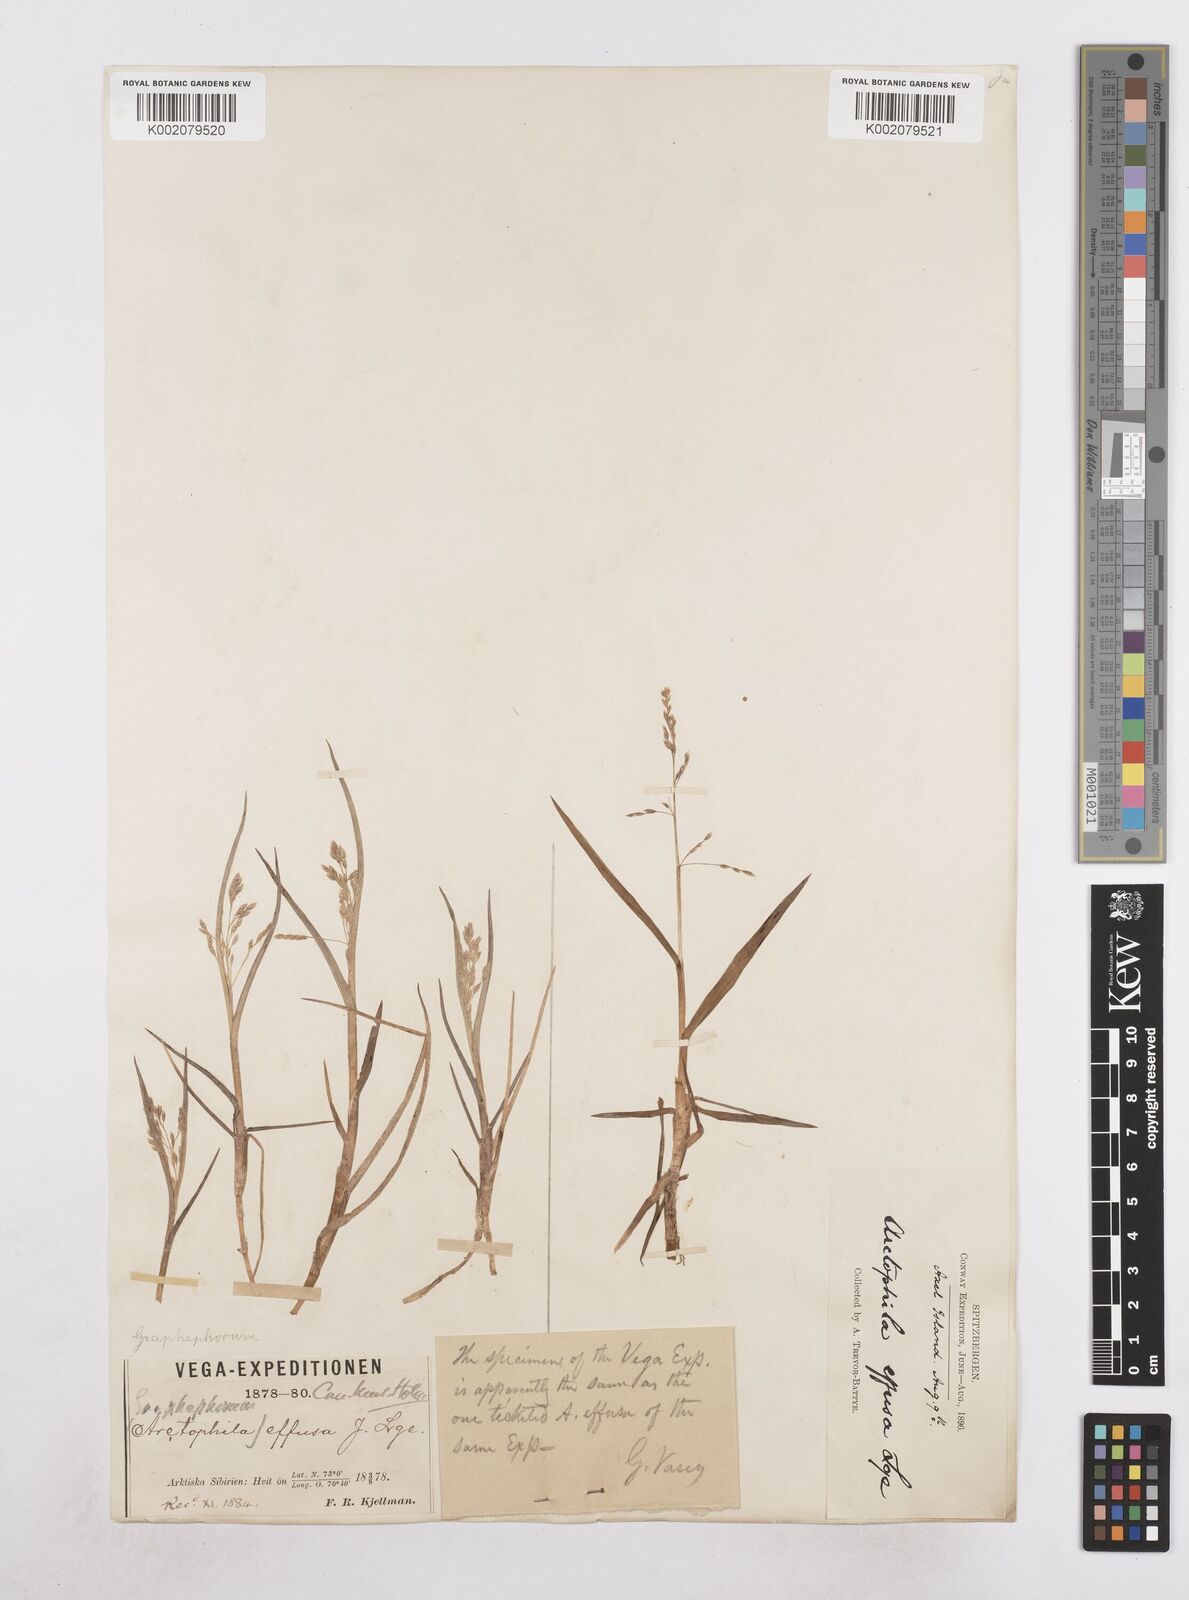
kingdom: Plantae
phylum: Tracheophyta
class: Liliopsida
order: Poales
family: Poaceae
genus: Dupontia
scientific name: Dupontia fulva
